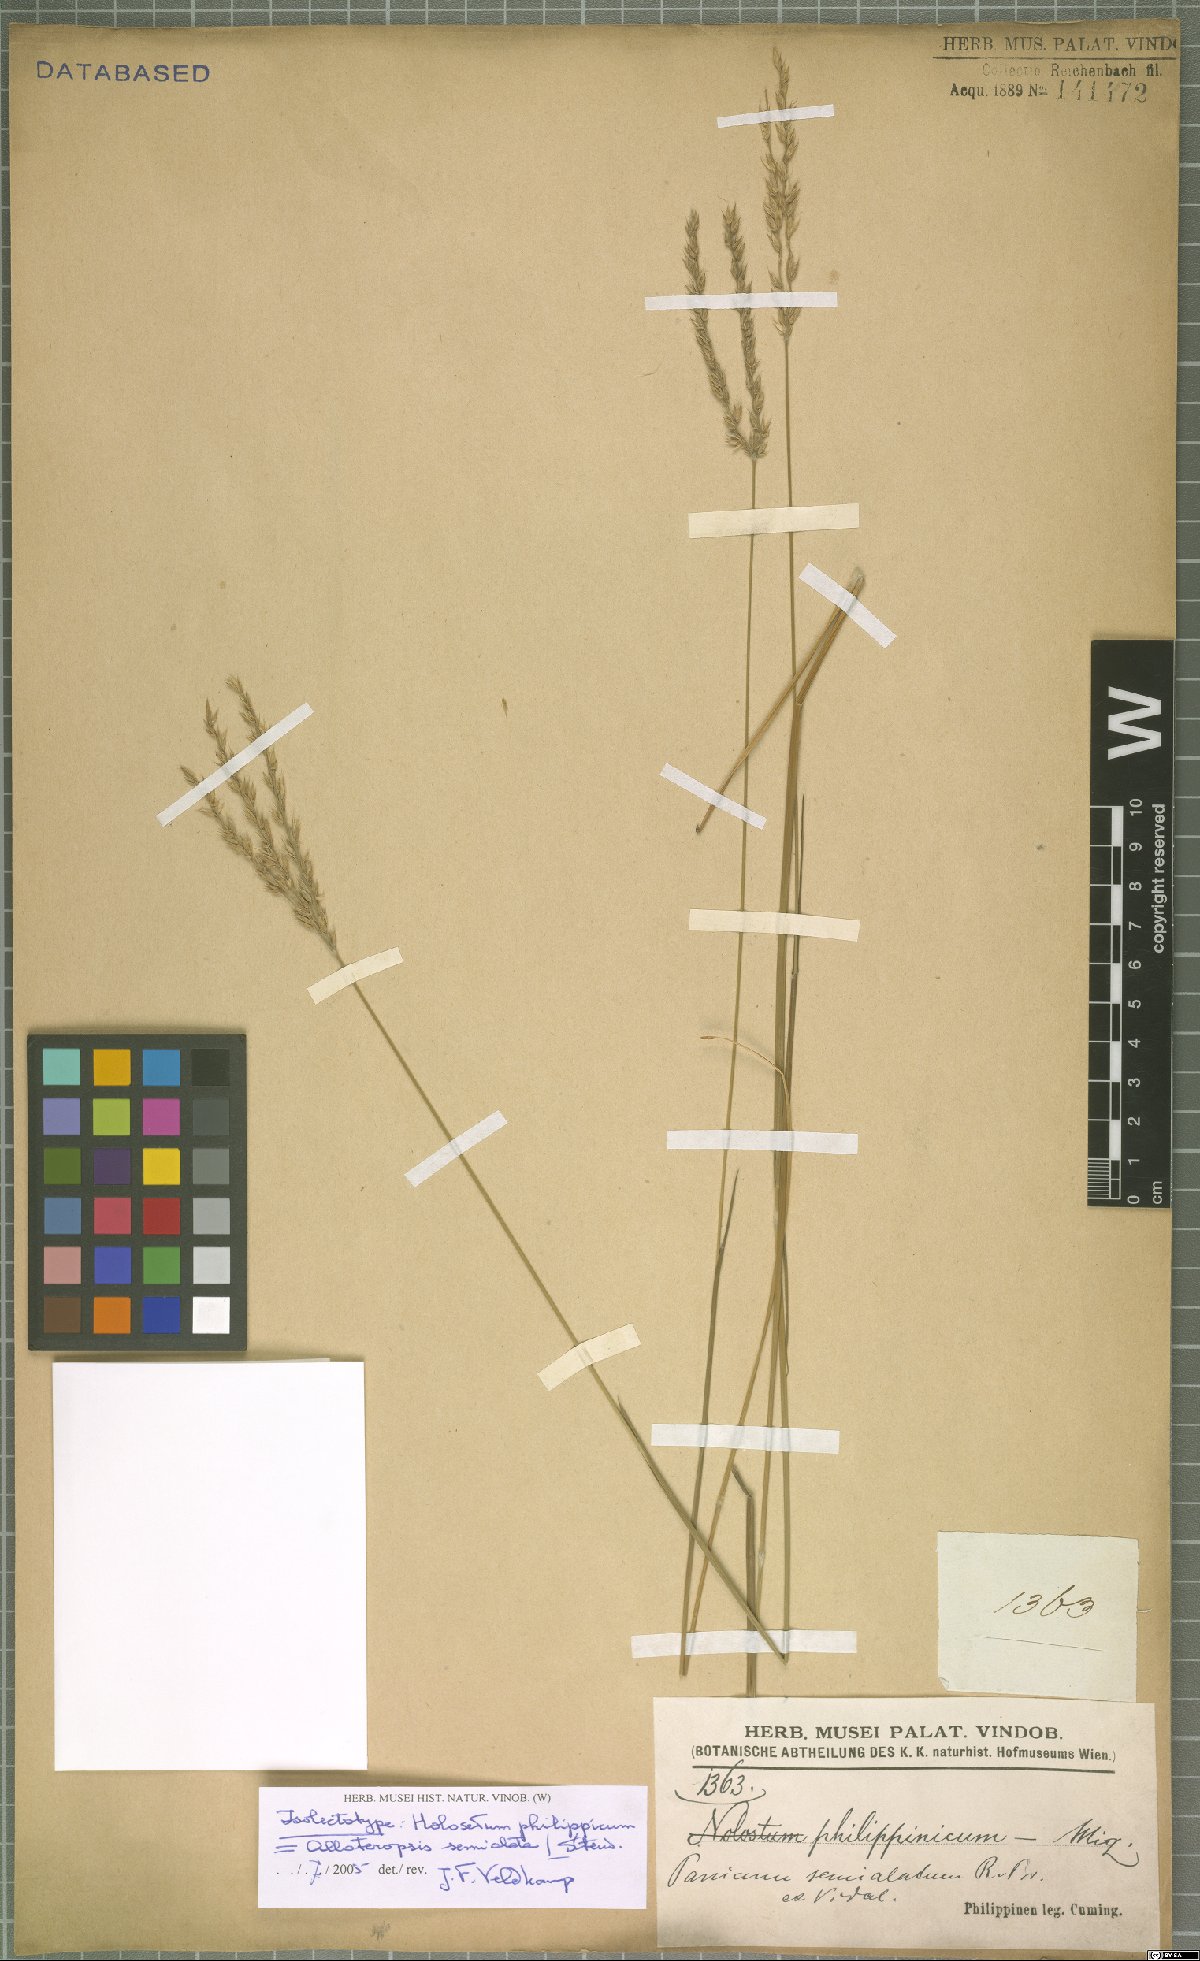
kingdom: Plantae
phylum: Tracheophyta
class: Liliopsida
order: Poales
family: Poaceae
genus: Alloteropsis
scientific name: Alloteropsis semialata
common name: Cockatoo grass
